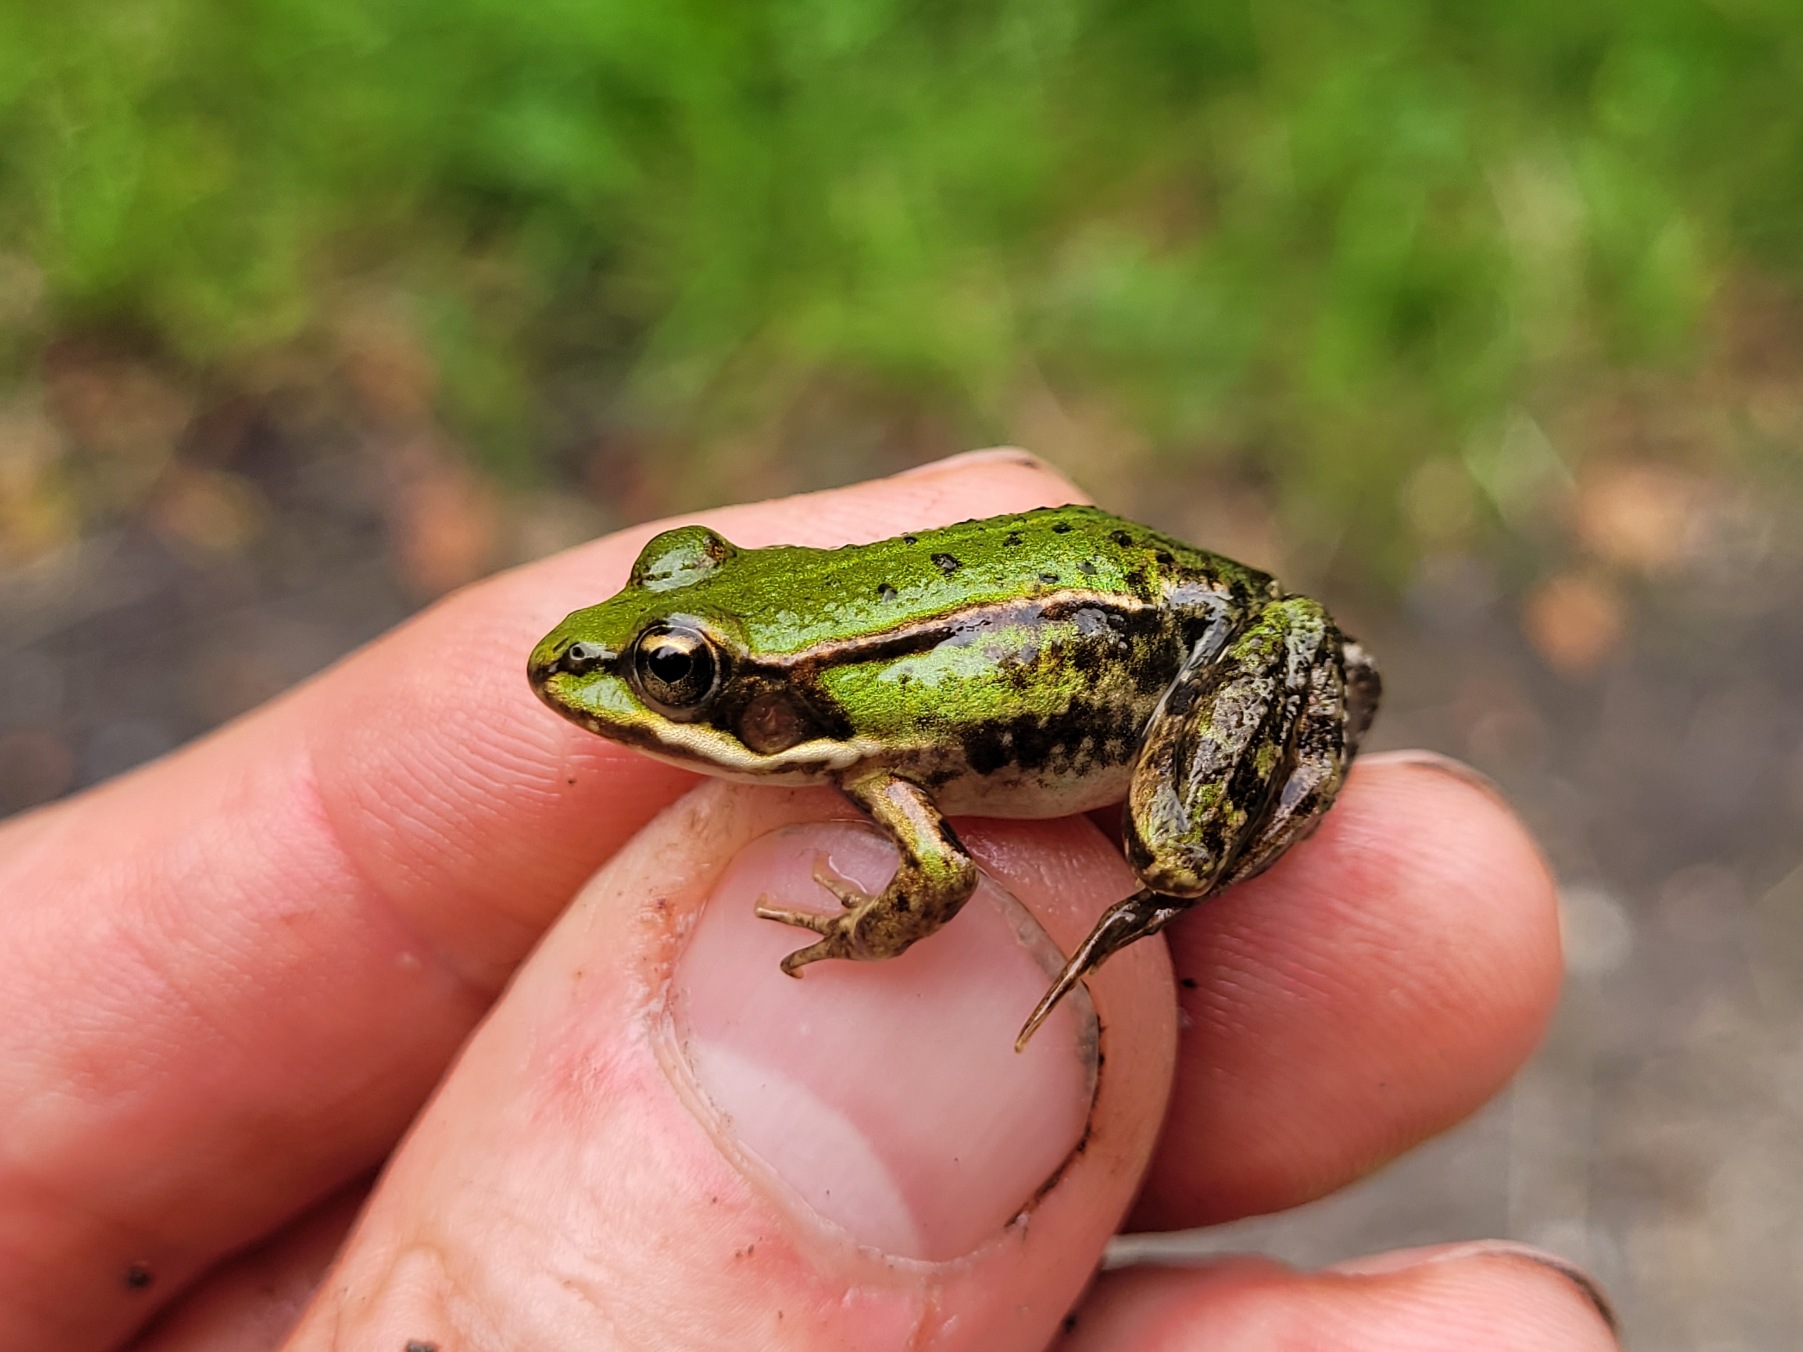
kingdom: Animalia
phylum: Chordata
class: Amphibia
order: Anura
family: Ranidae
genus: Pelophylax
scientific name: Pelophylax lessonae
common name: Grøn frø
